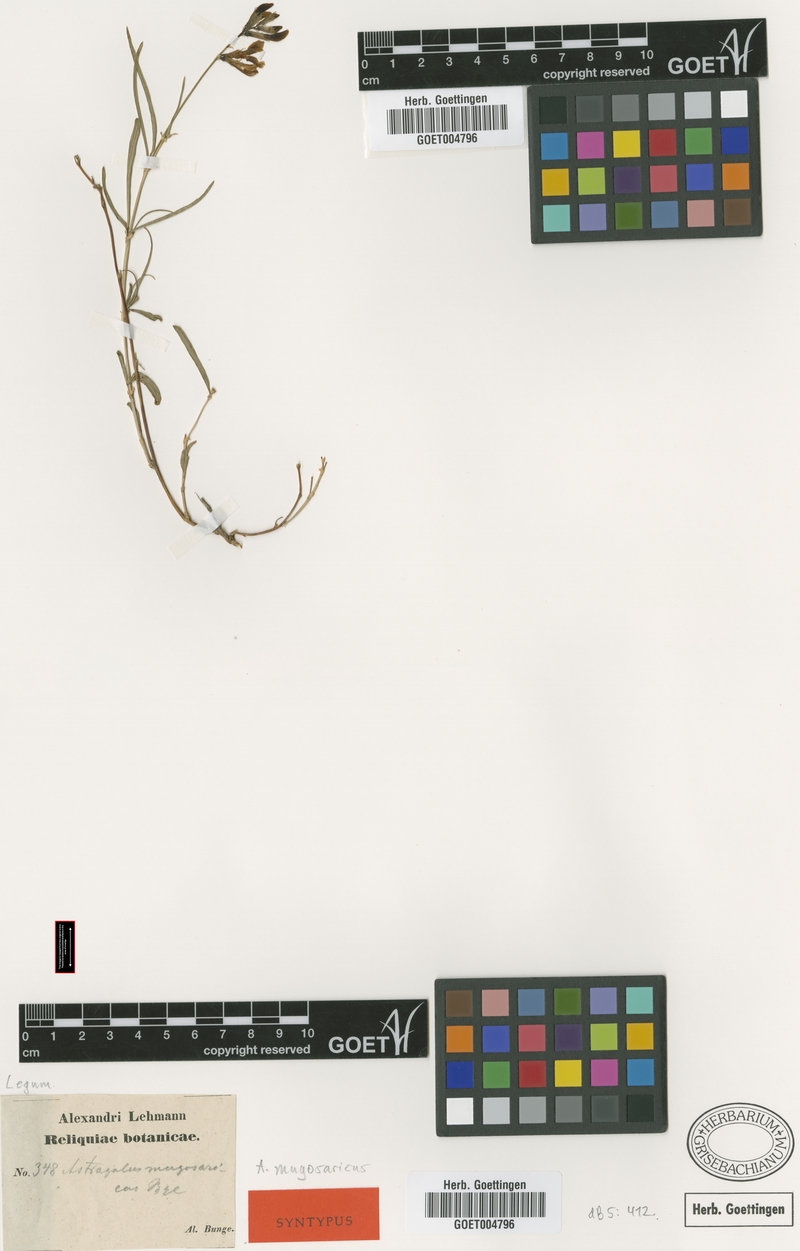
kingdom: Plantae
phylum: Tracheophyta
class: Magnoliopsida
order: Fabales
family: Fabaceae
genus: Astragalus
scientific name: Astragalus mugosaricus
